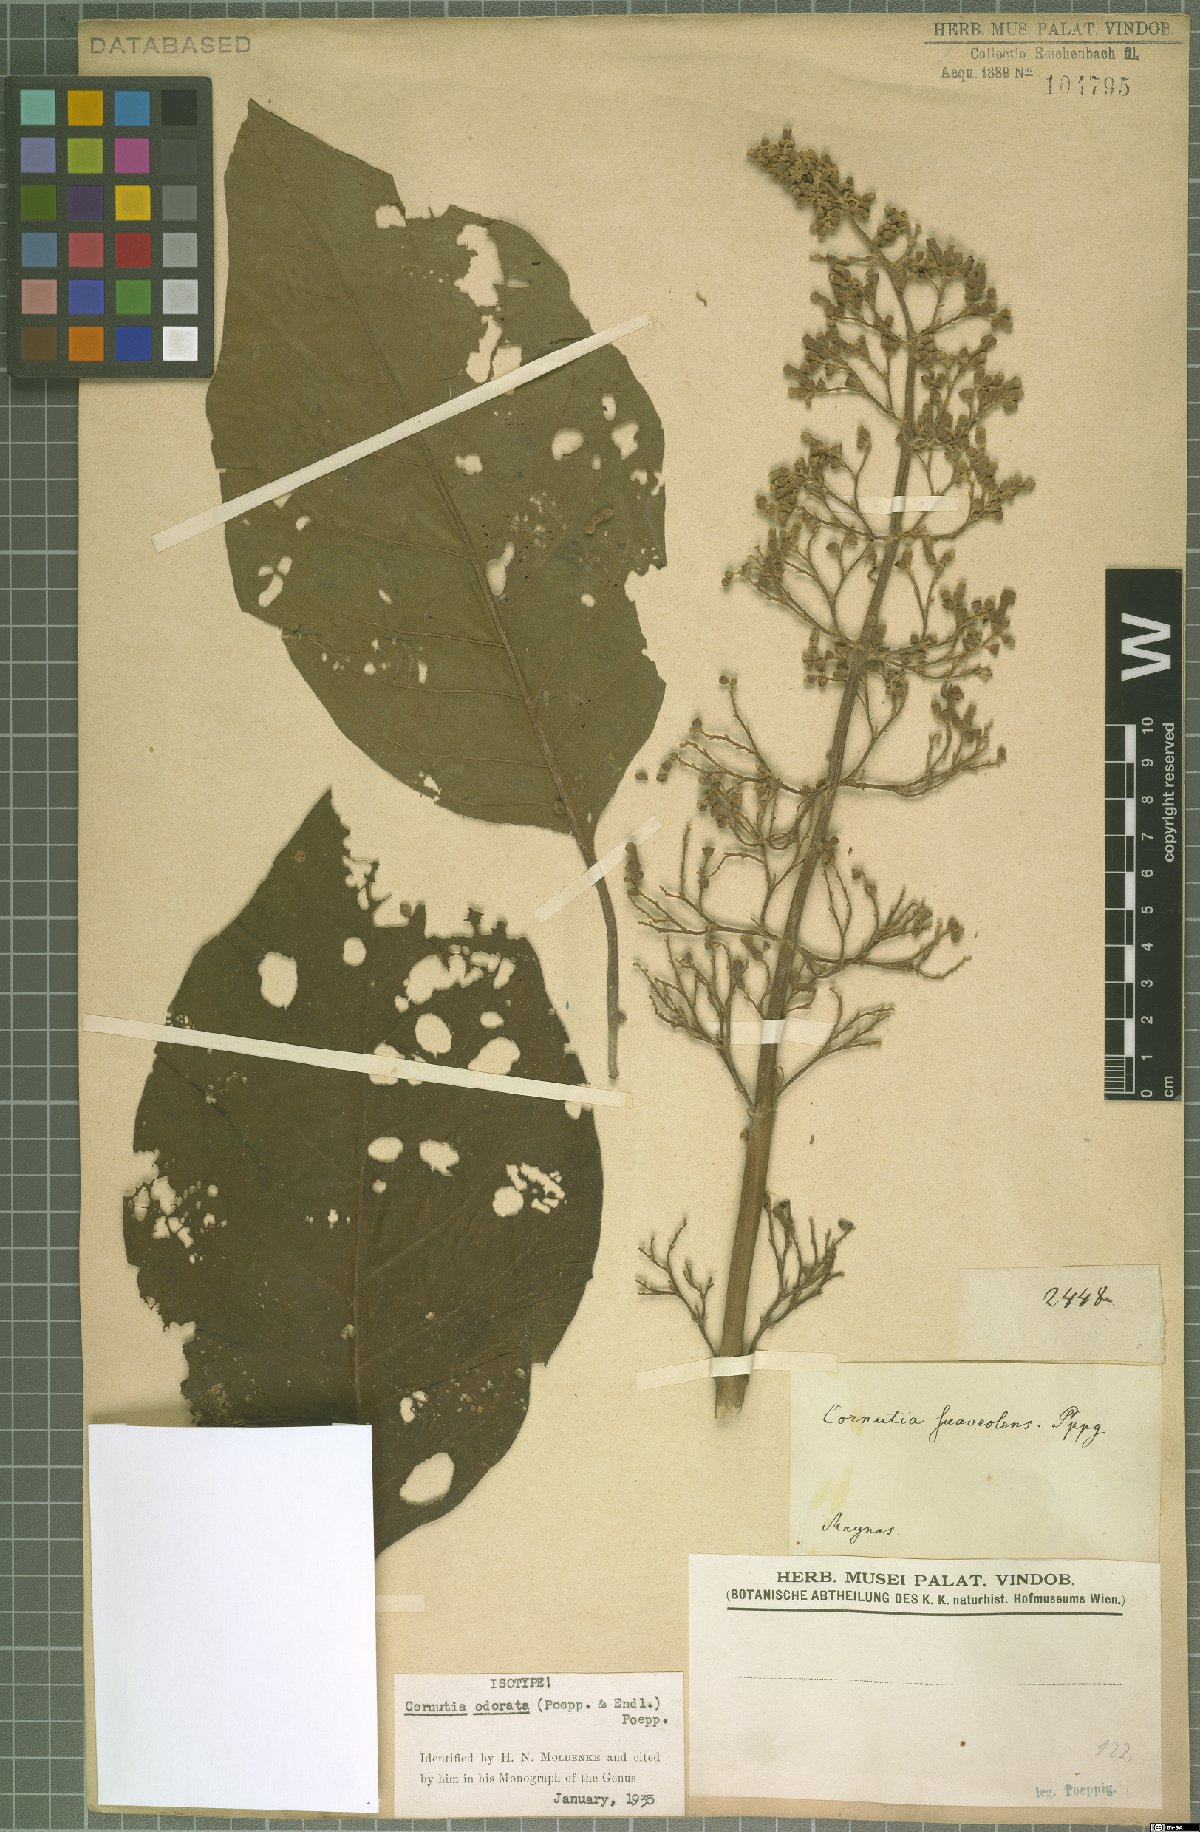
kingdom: Plantae
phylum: Tracheophyta
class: Magnoliopsida
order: Lamiales
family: Lamiaceae
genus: Cornutia
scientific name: Cornutia odorata
